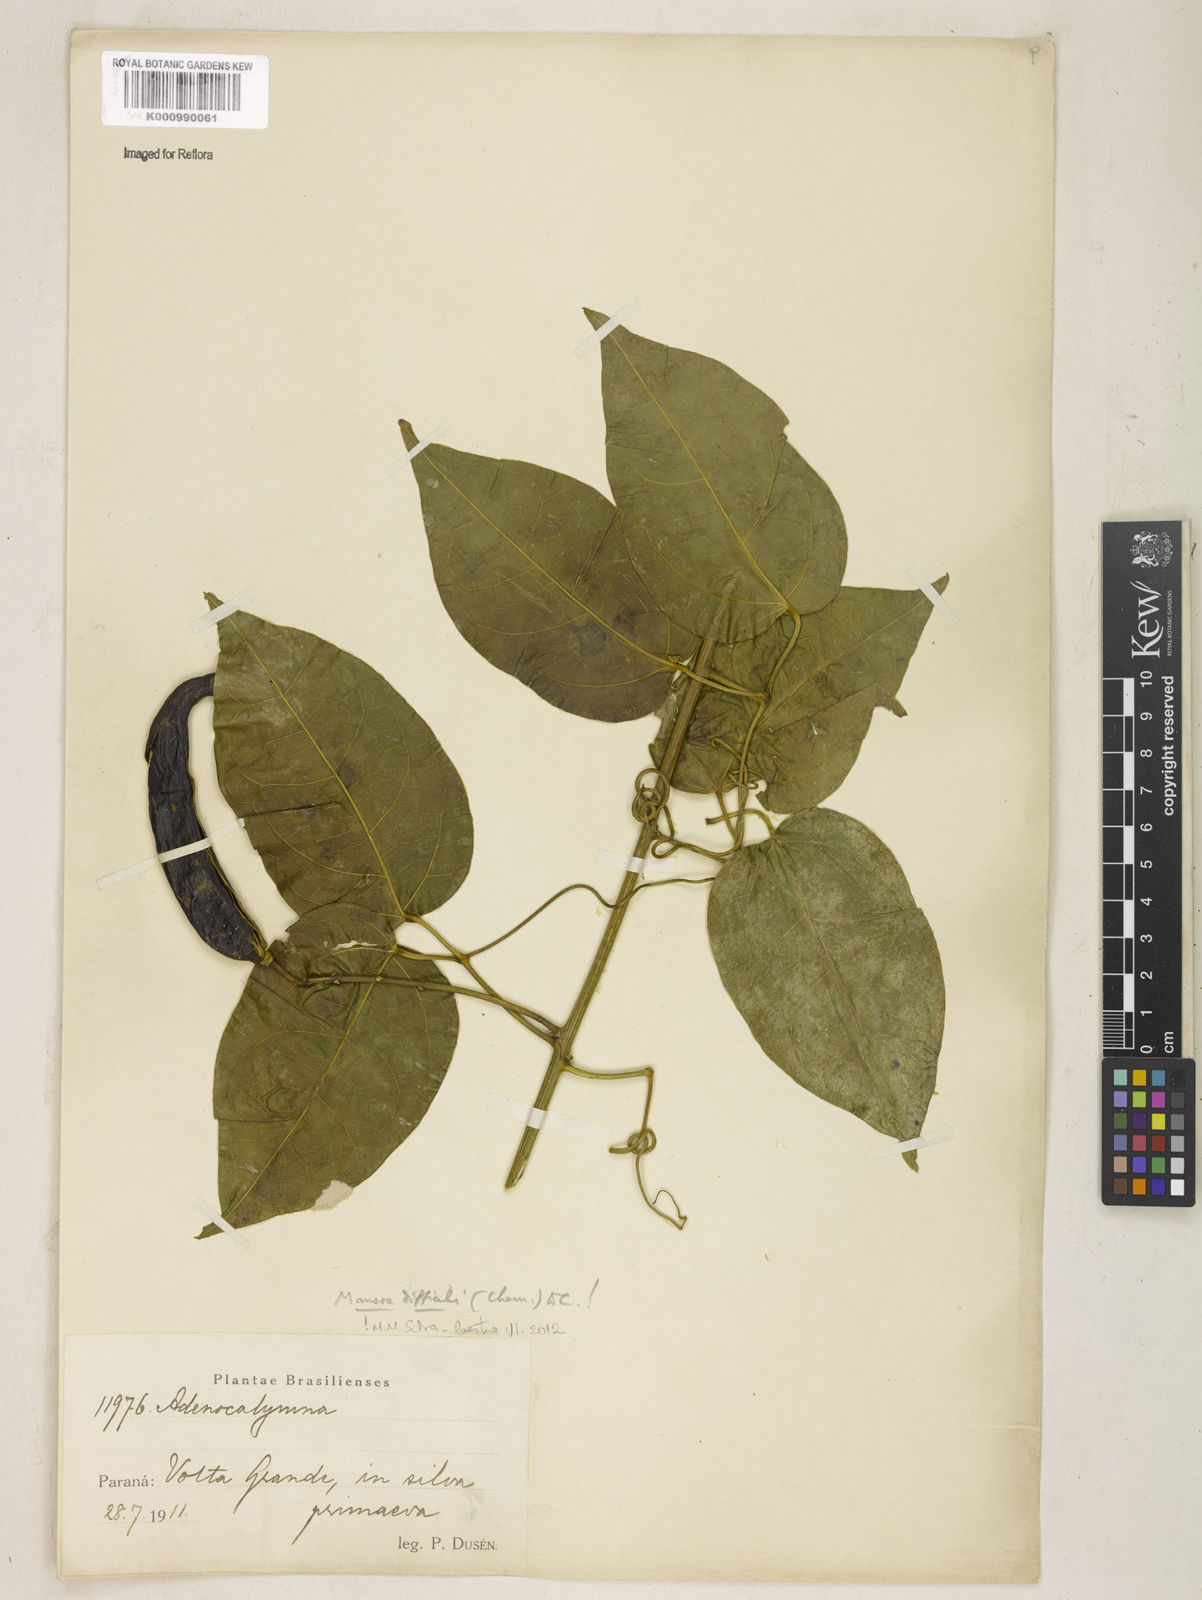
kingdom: Plantae
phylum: Tracheophyta
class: Magnoliopsida
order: Lamiales
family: Bignoniaceae
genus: Mansoa
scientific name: Mansoa difficilis
